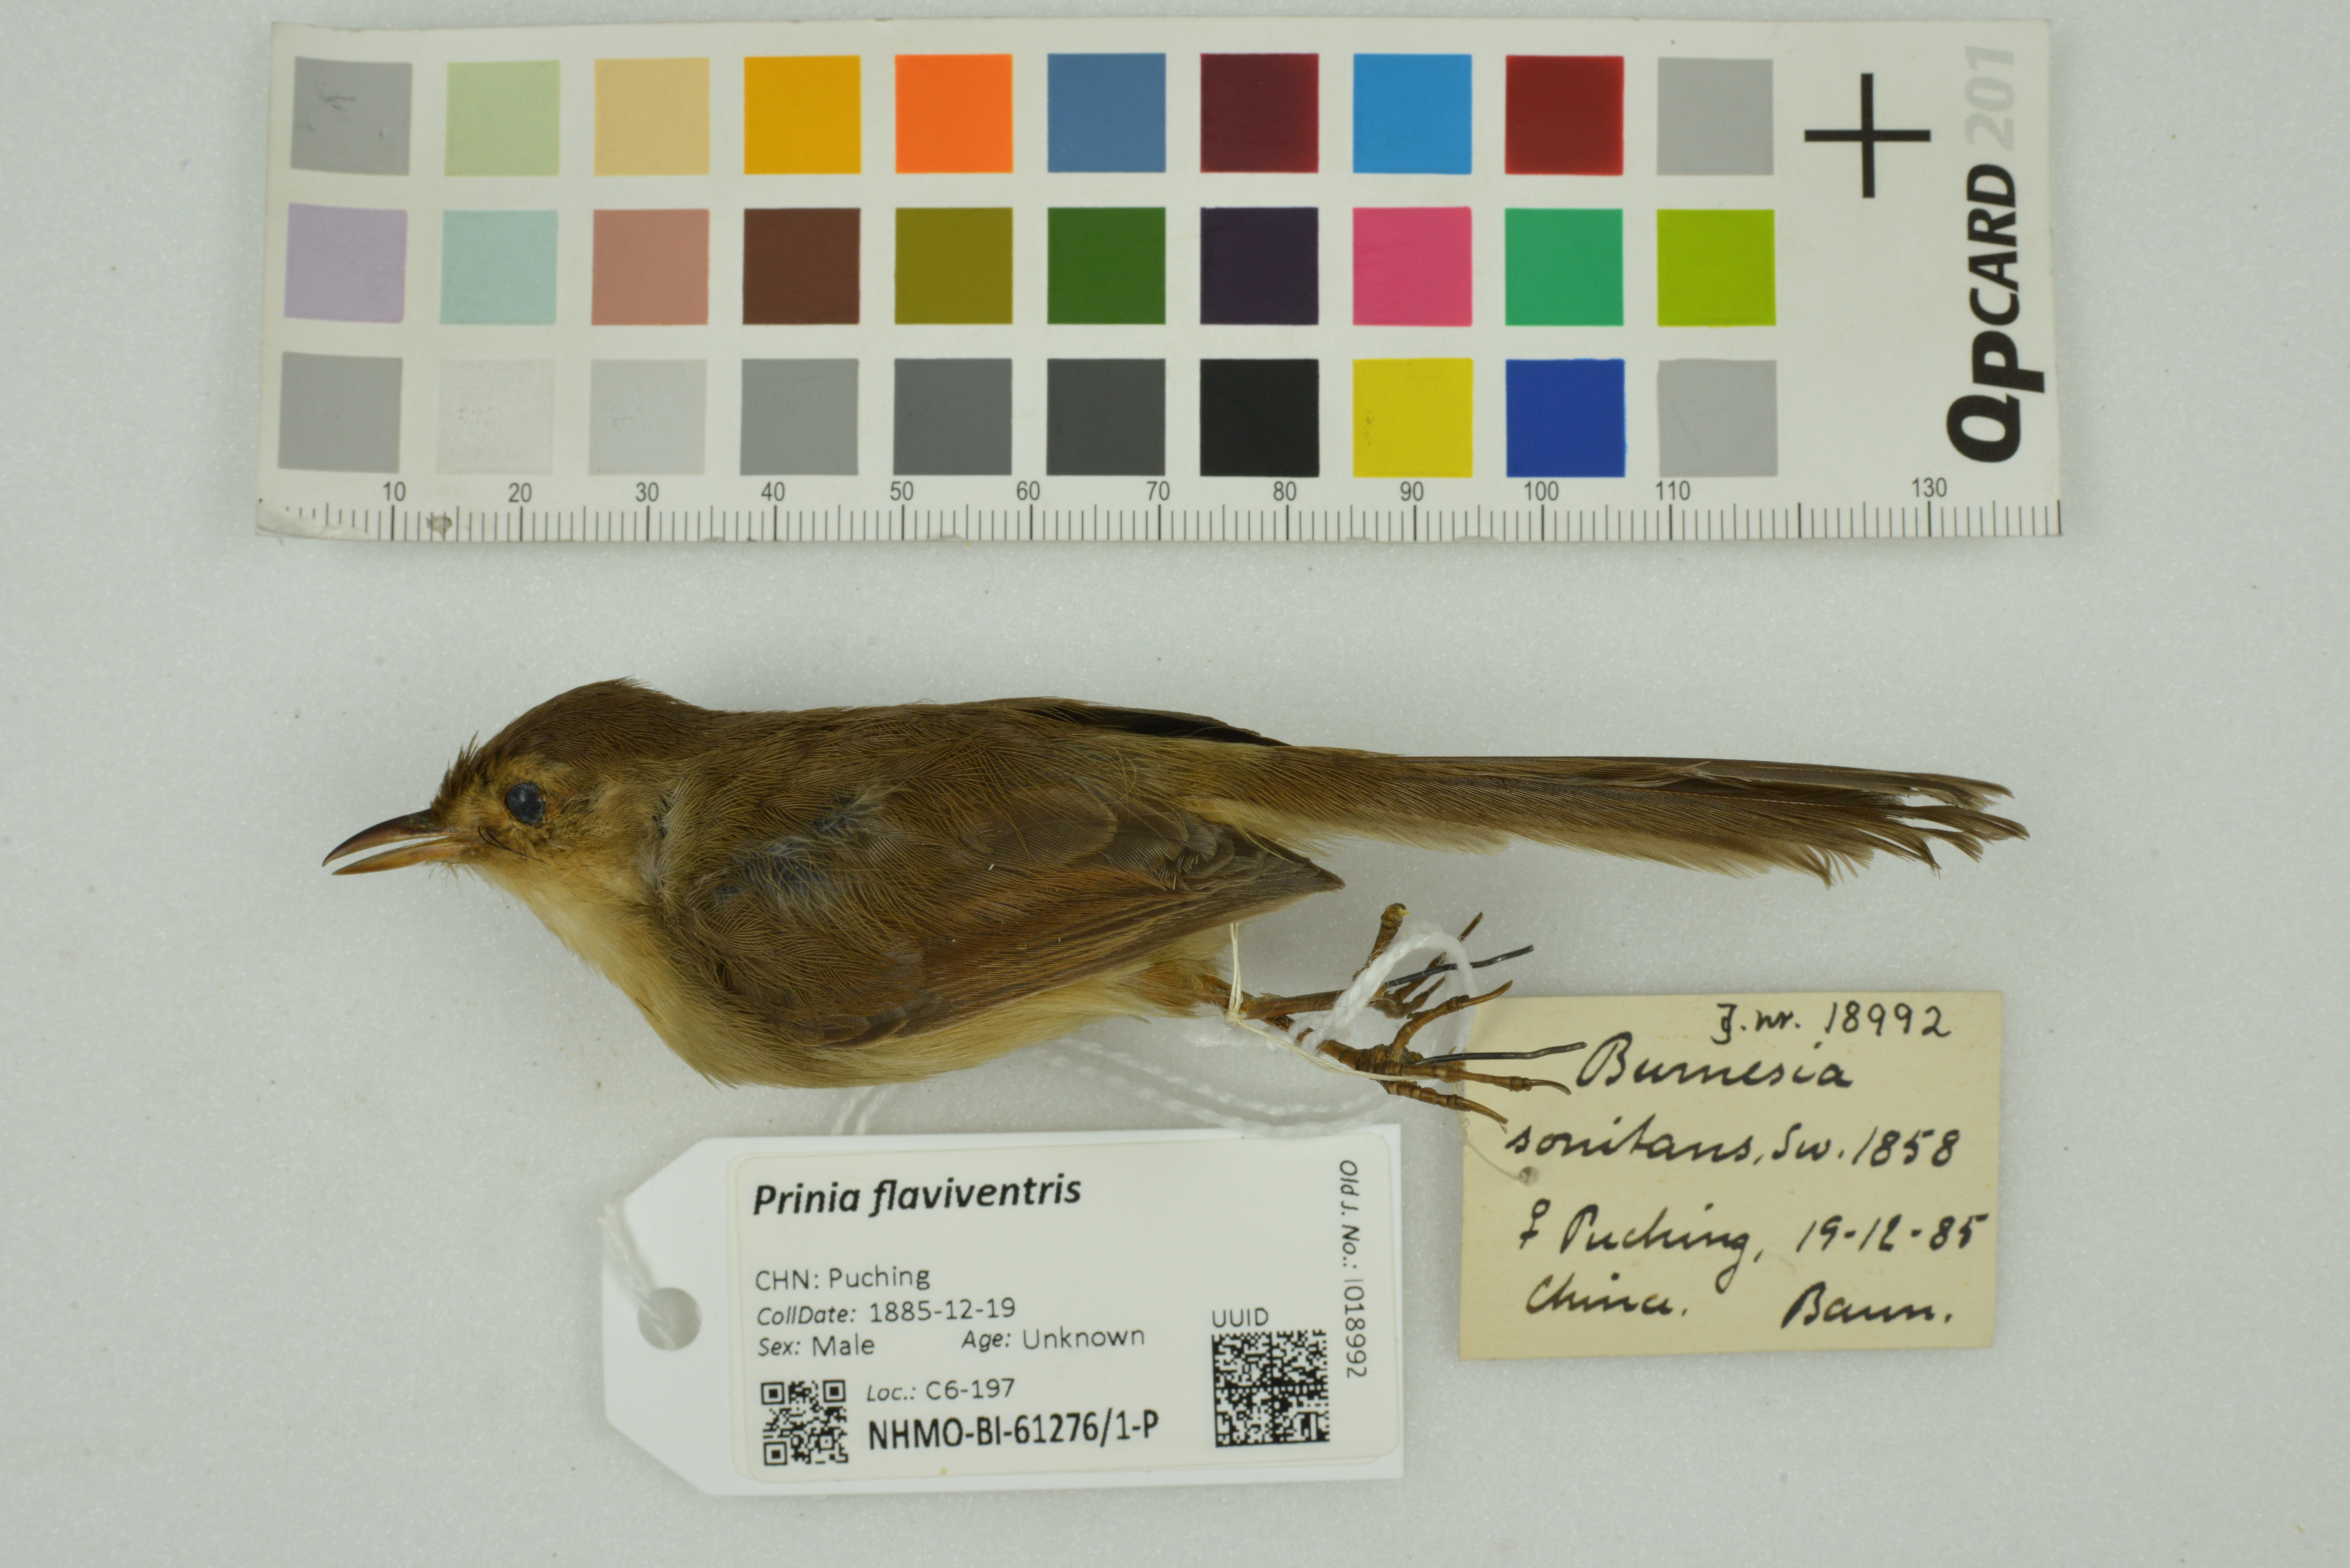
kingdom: Animalia
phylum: Chordata
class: Aves
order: Passeriformes
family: Cisticolidae
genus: Prinia
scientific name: Prinia flaviventris
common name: Yellow-bellied prinia
